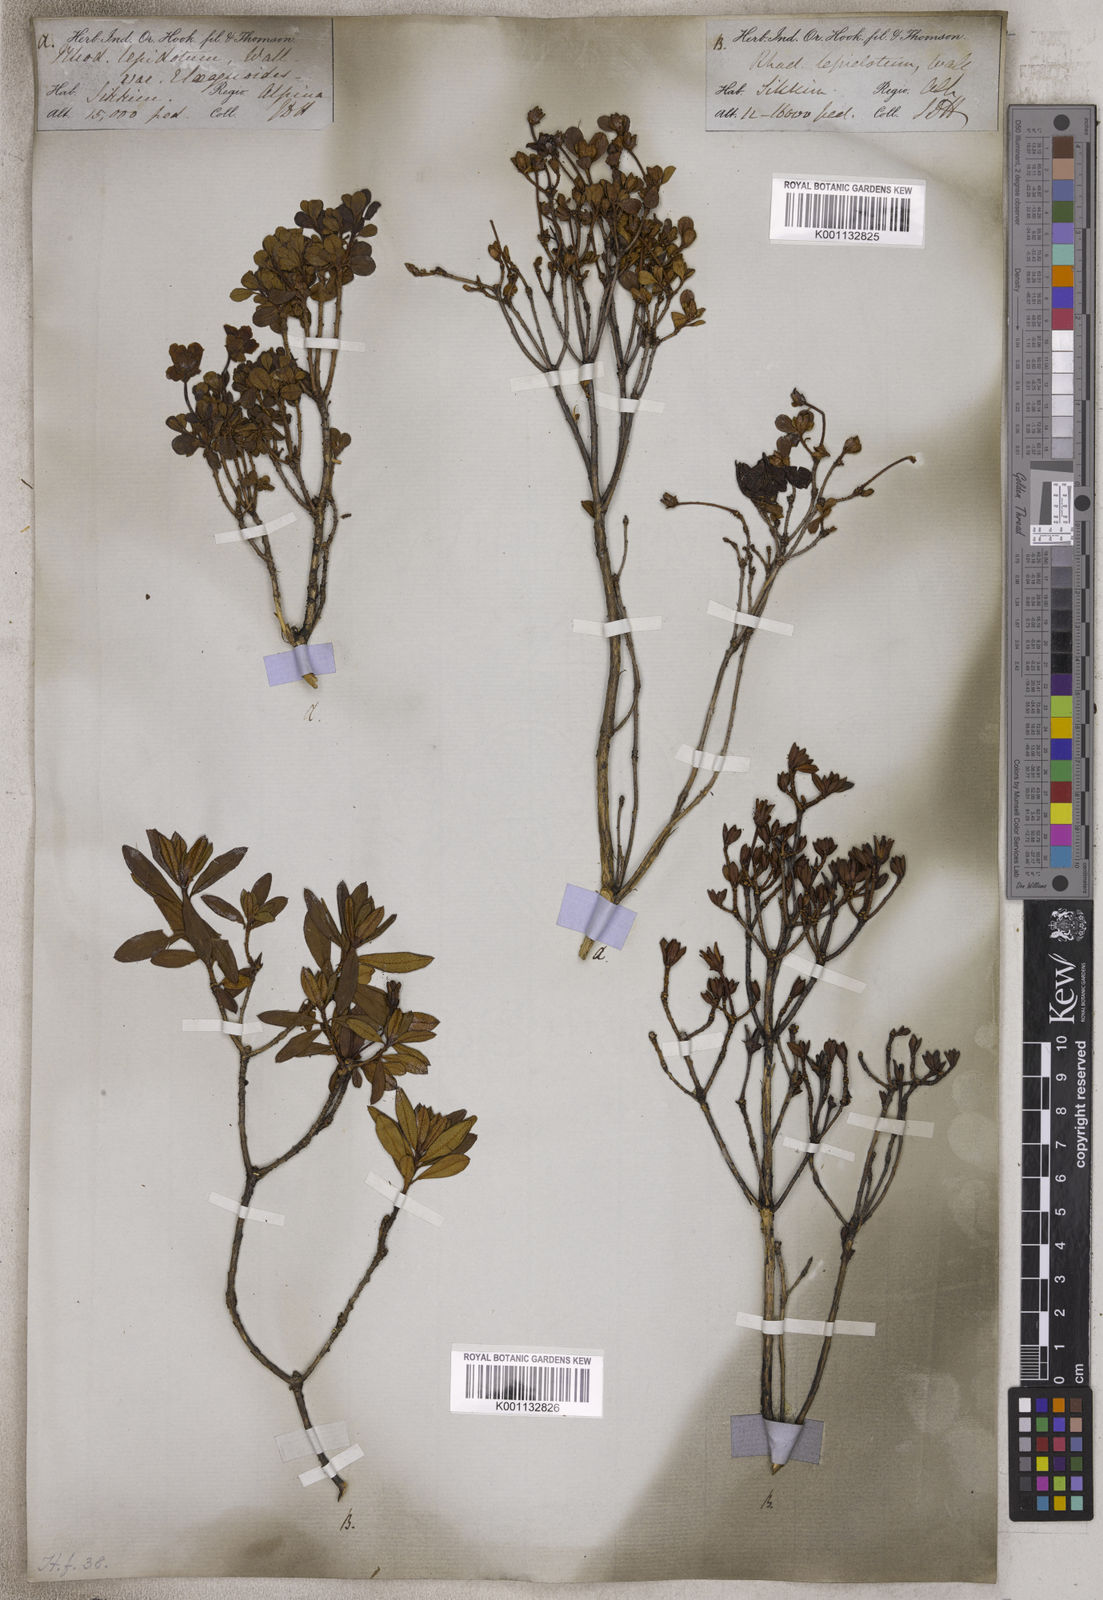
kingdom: Plantae
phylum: Tracheophyta
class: Magnoliopsida
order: Ericales
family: Ericaceae
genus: Rhododendron
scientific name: Rhododendron
